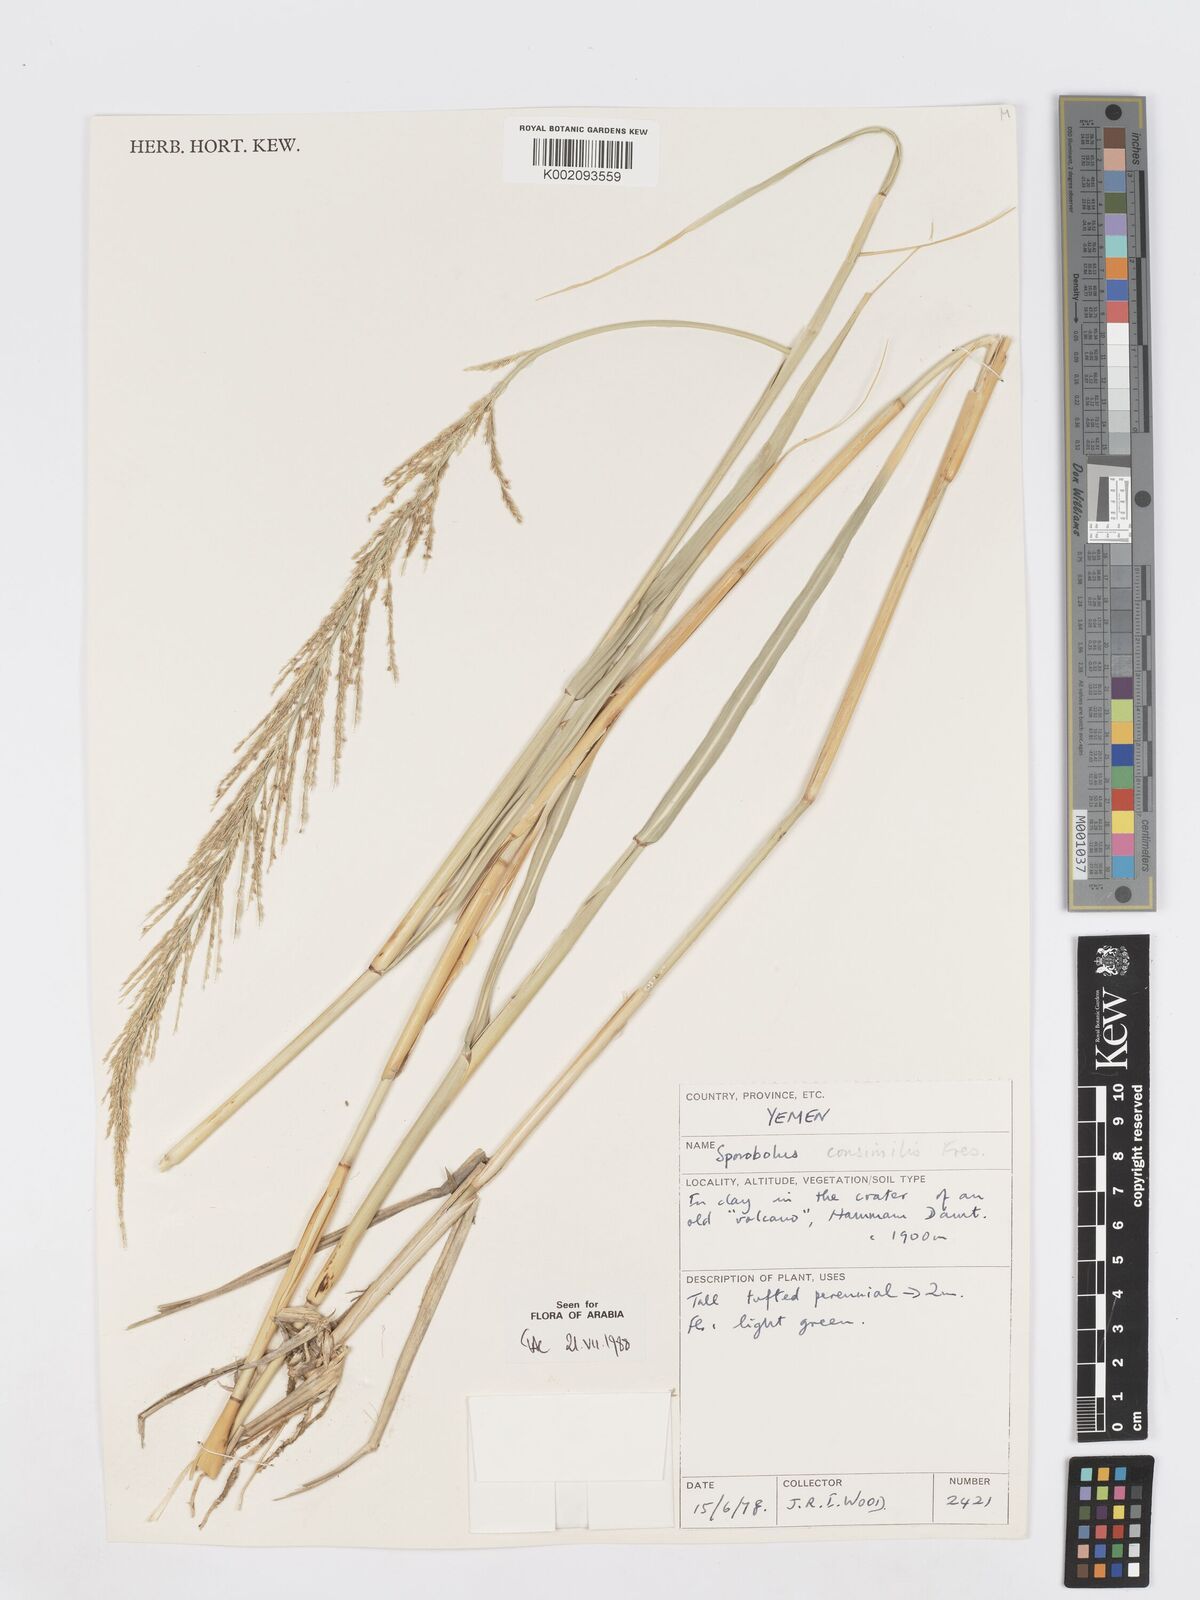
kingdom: Plantae
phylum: Tracheophyta
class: Liliopsida
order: Poales
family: Poaceae
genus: Sporobolus
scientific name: Sporobolus consimilis
